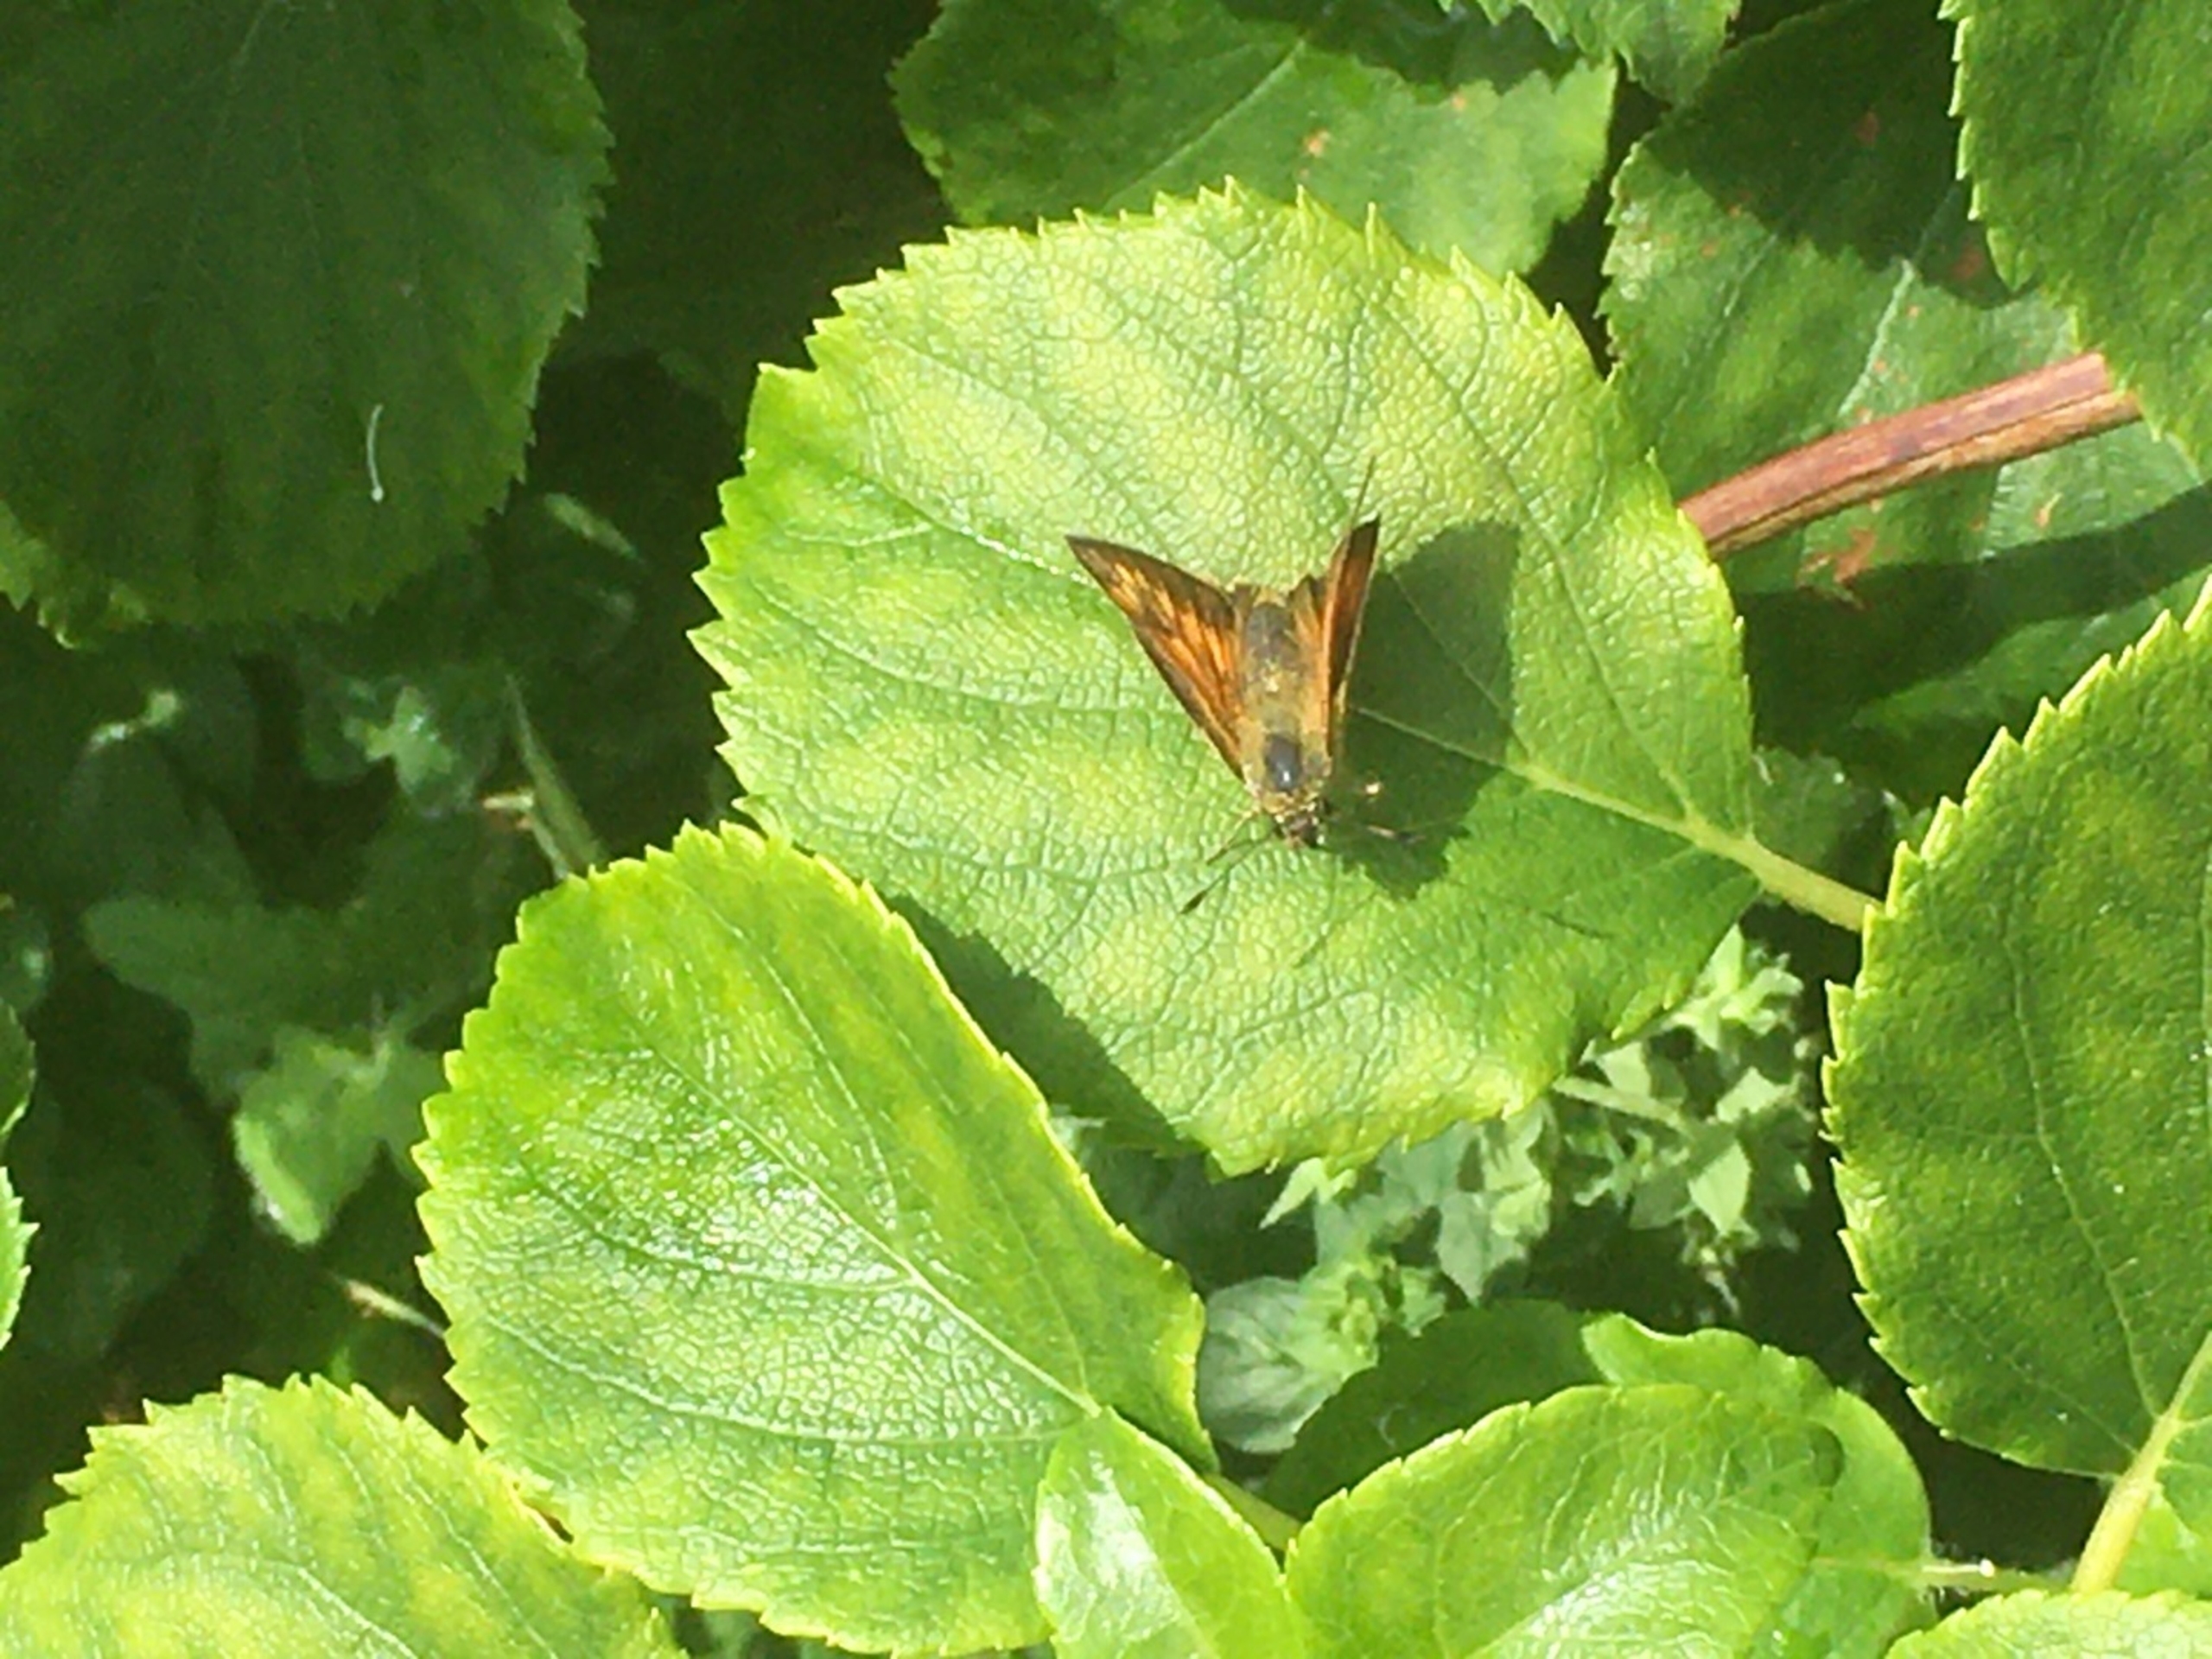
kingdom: Animalia
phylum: Arthropoda
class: Insecta
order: Lepidoptera
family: Hesperiidae
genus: Ochlodes
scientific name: Ochlodes venata
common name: Stor bredpande
